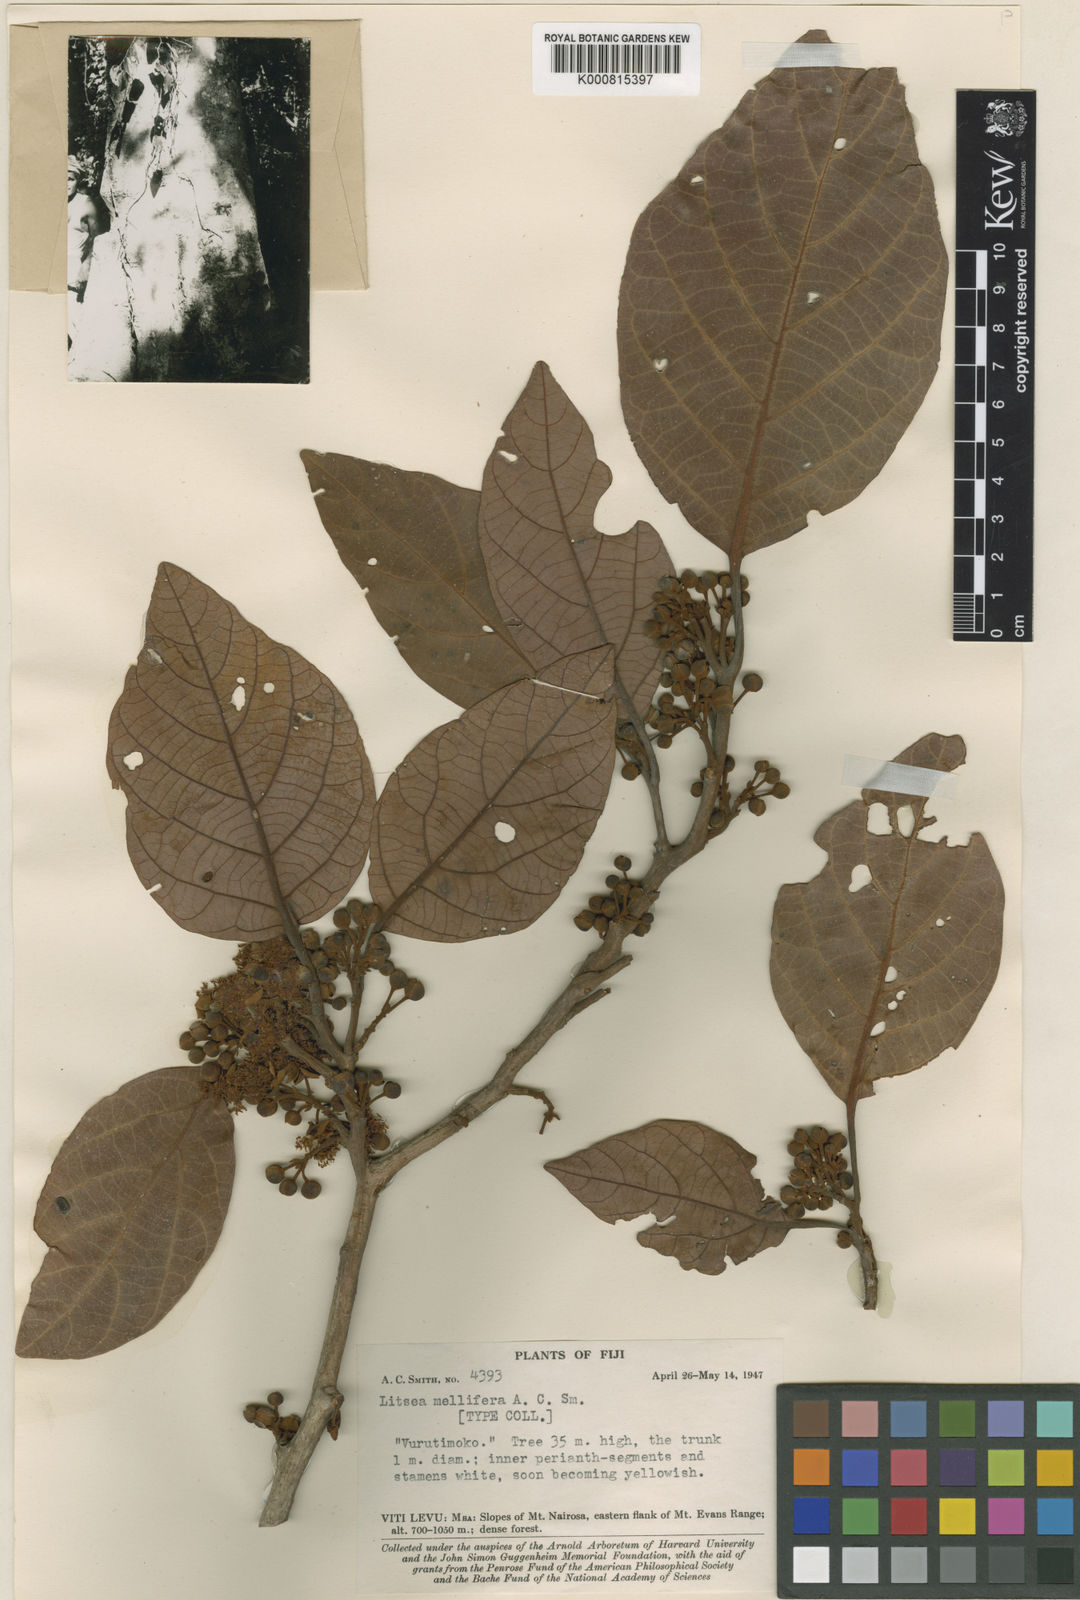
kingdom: Plantae
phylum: Tracheophyta
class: Magnoliopsida
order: Laurales
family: Lauraceae
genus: Litsea
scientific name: Litsea mellifera
